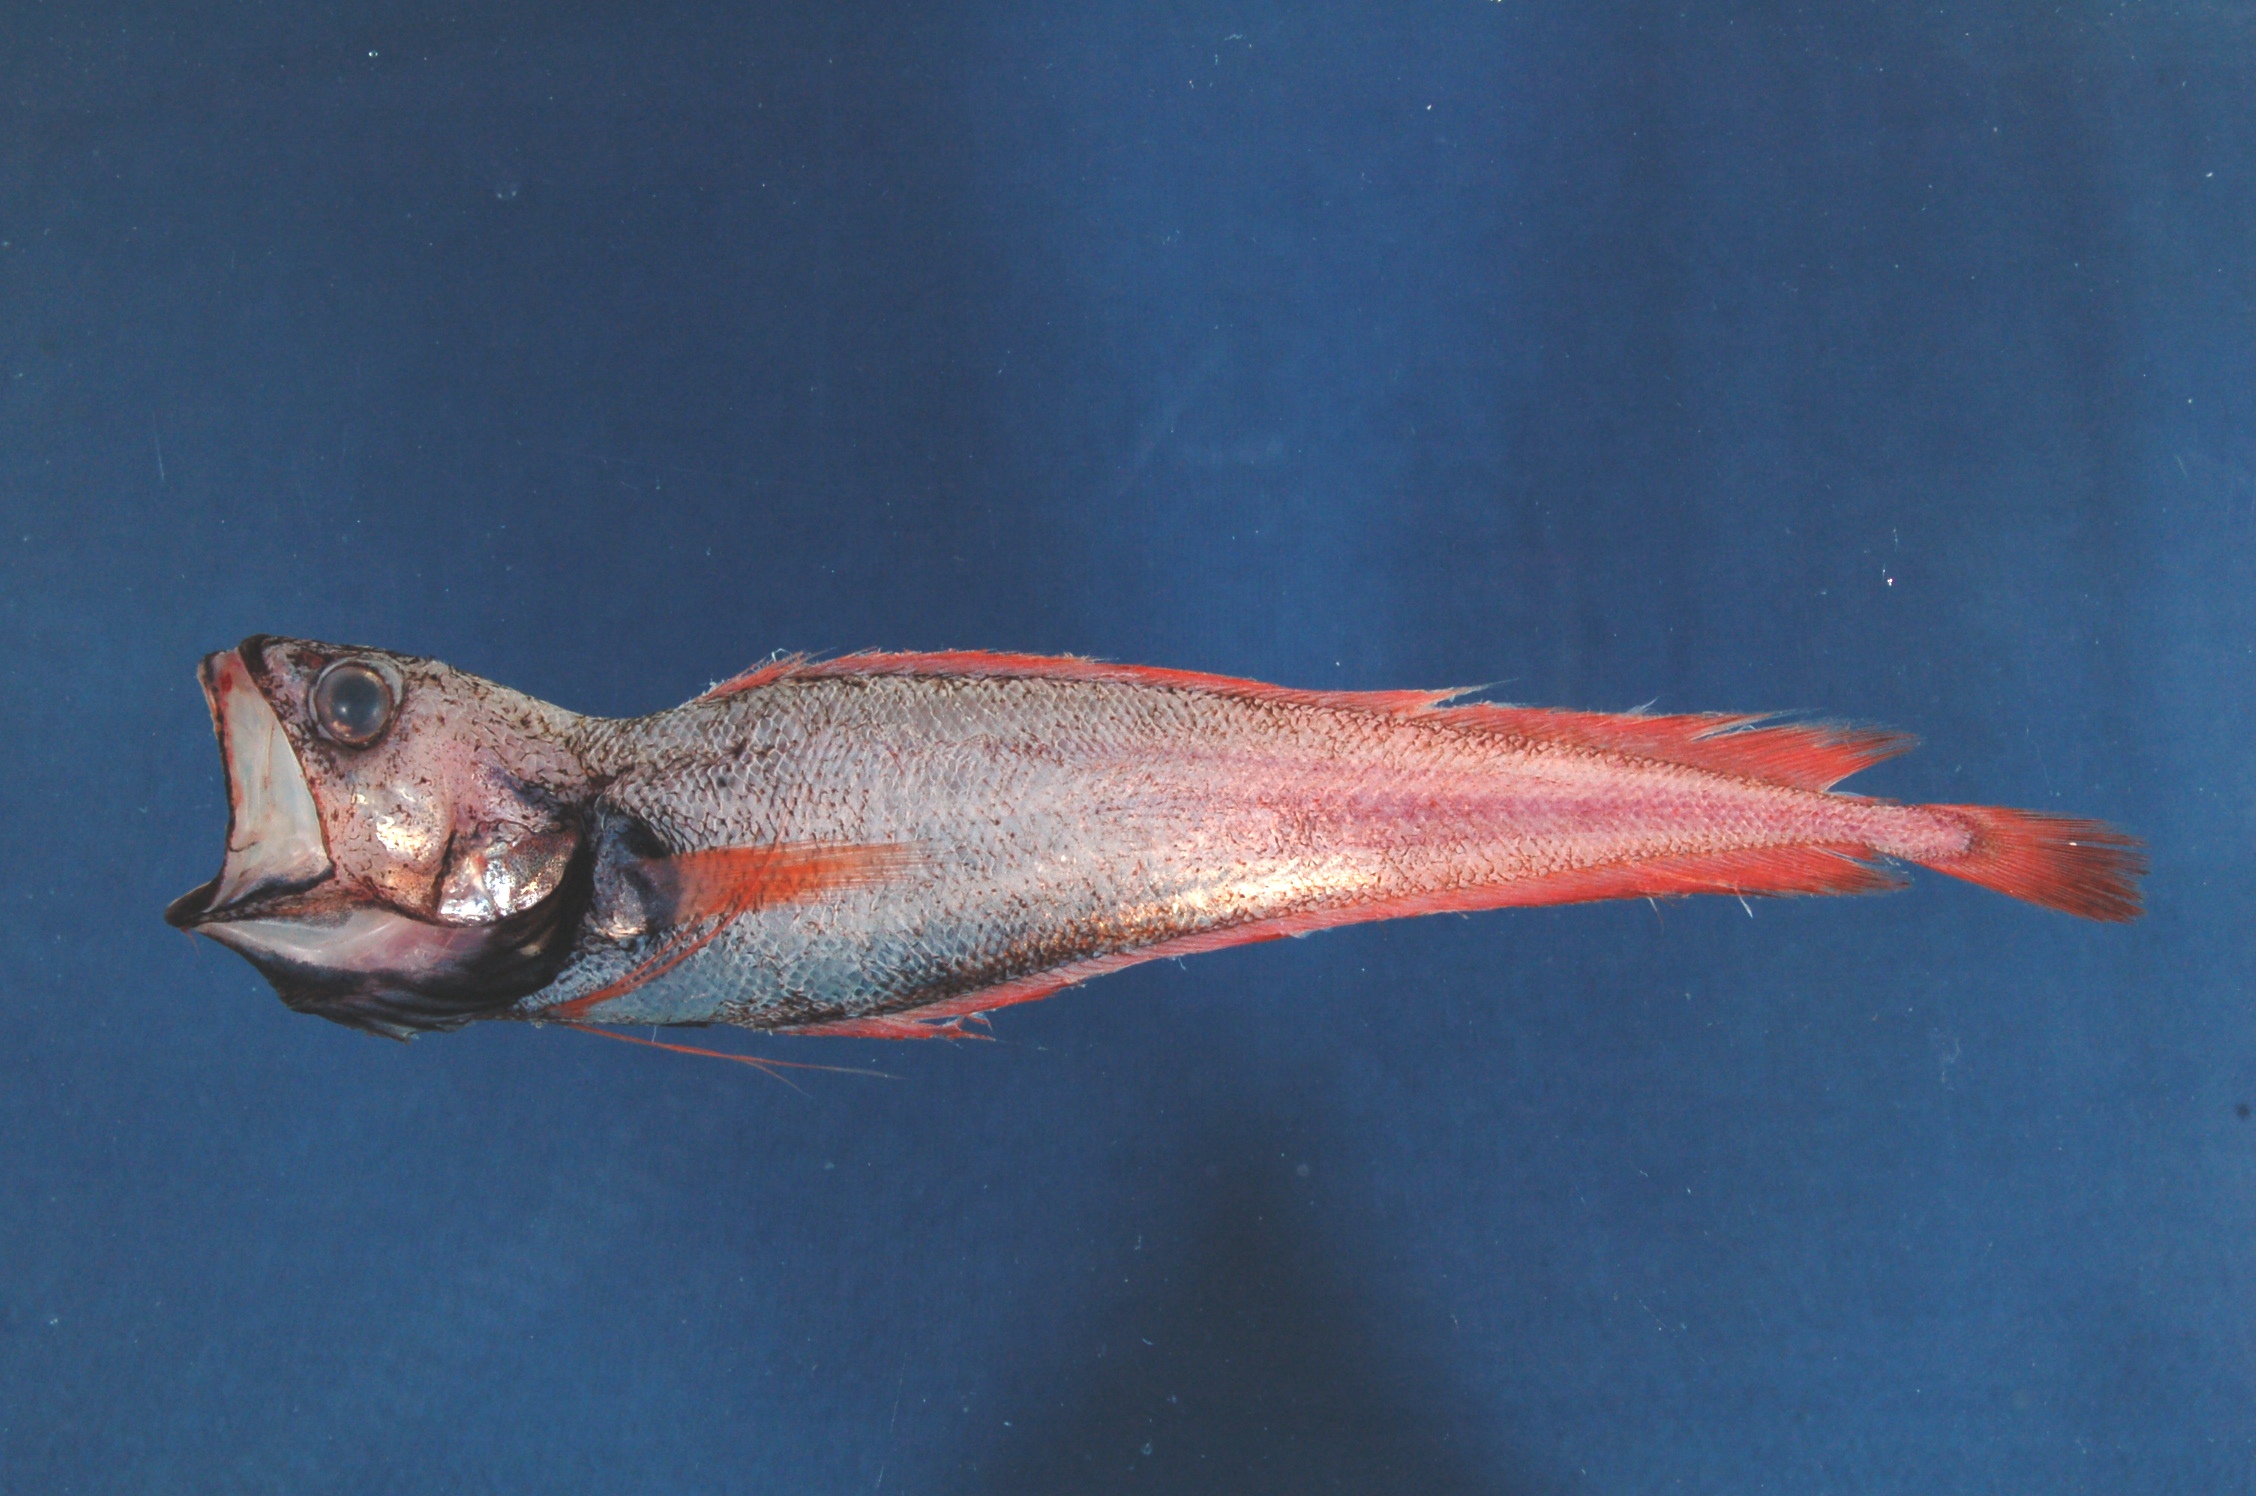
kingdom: Animalia
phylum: Chordata
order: Gadiformes
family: Moridae
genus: Physiculus
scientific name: Physiculus natalensis
